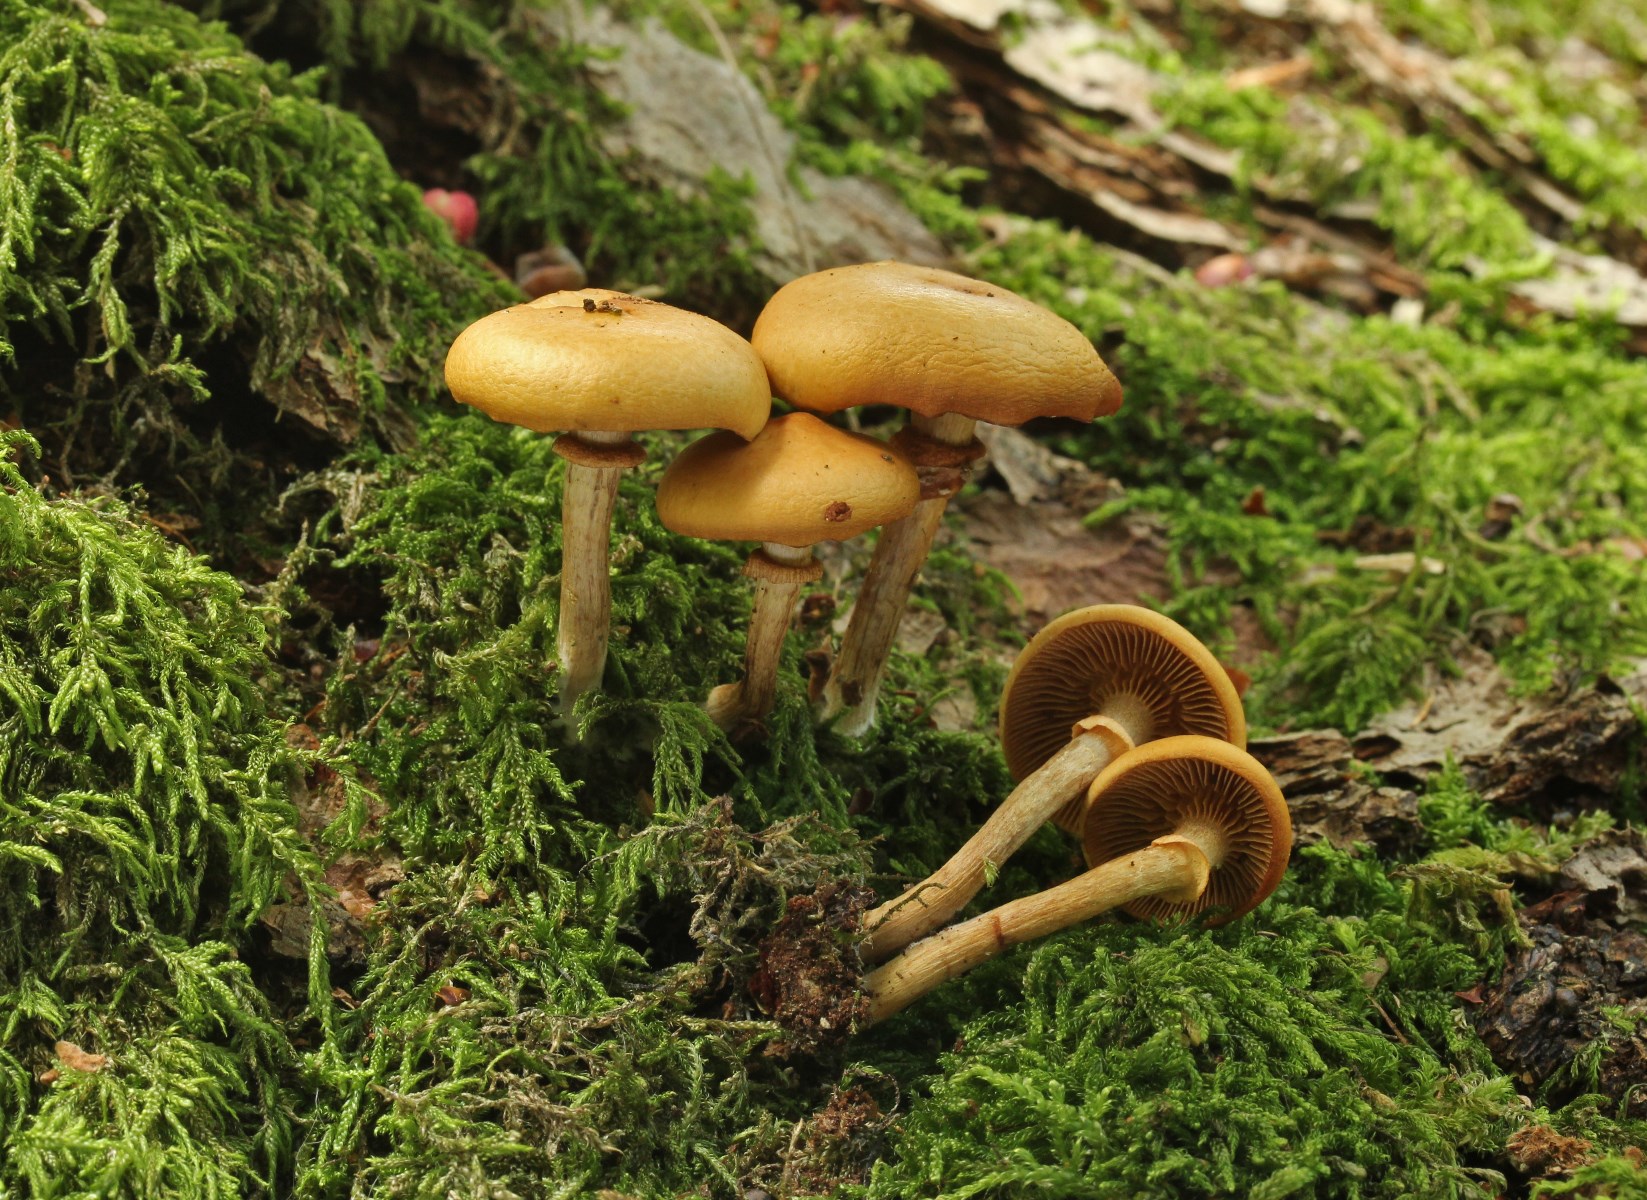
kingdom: Fungi
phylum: Basidiomycota
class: Agaricomycetes
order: Agaricales
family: Hymenogastraceae
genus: Galerina
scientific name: Galerina marginata
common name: randbæltet hjelmhat
